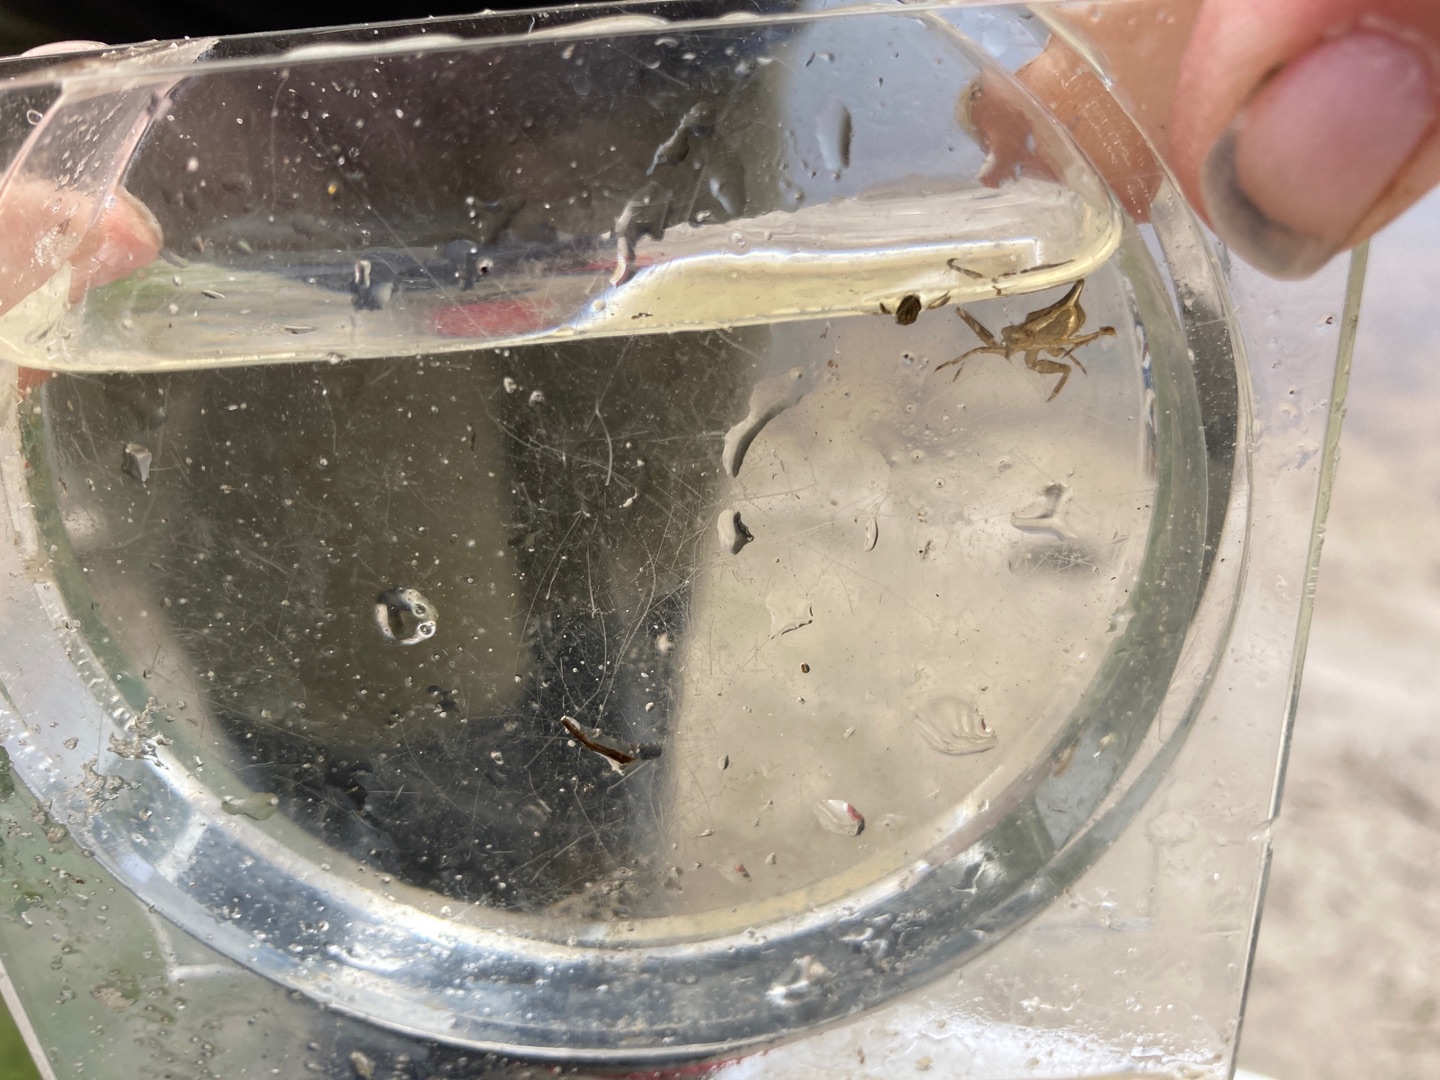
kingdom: Animalia
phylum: Arthropoda
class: Insecta
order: Hemiptera
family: Nepidae
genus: Nepa
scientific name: Nepa cinerea
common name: Skorpiontæge
